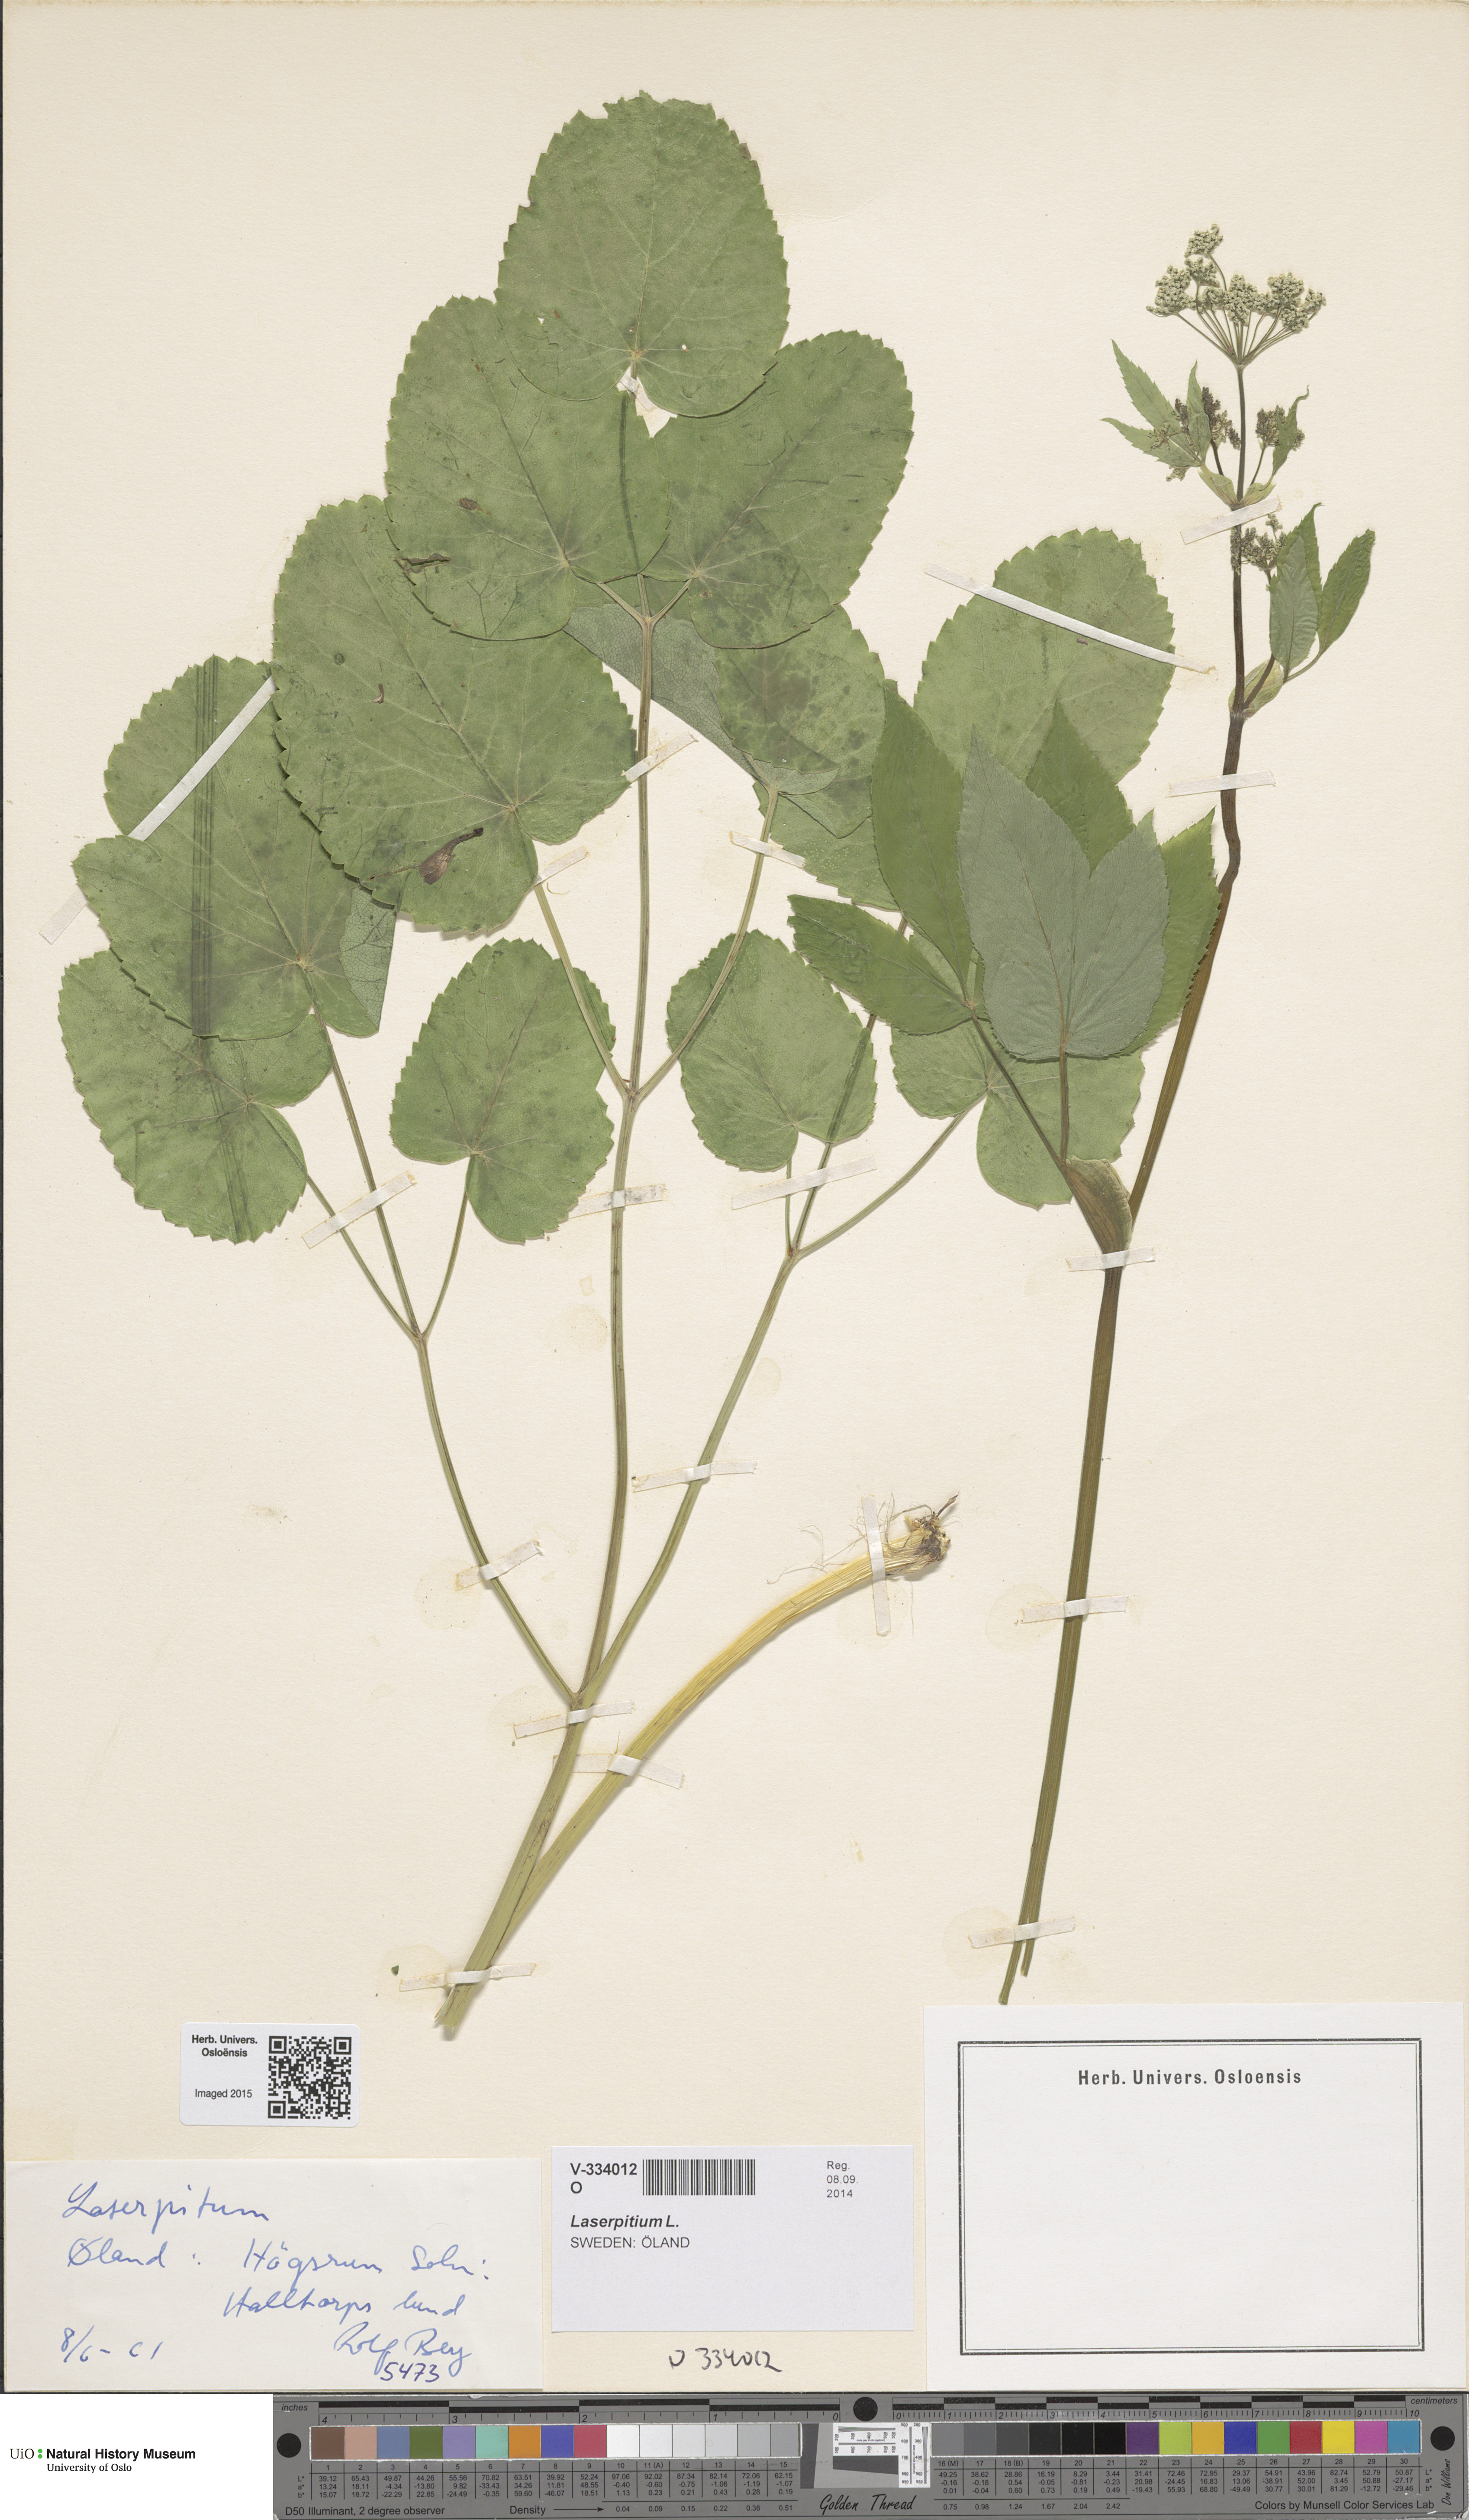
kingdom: Plantae
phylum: Tracheophyta
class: Magnoliopsida
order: Apiales
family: Apiaceae
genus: Laserpitium
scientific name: Laserpitium latifolium
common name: Broadleaf sermountain
